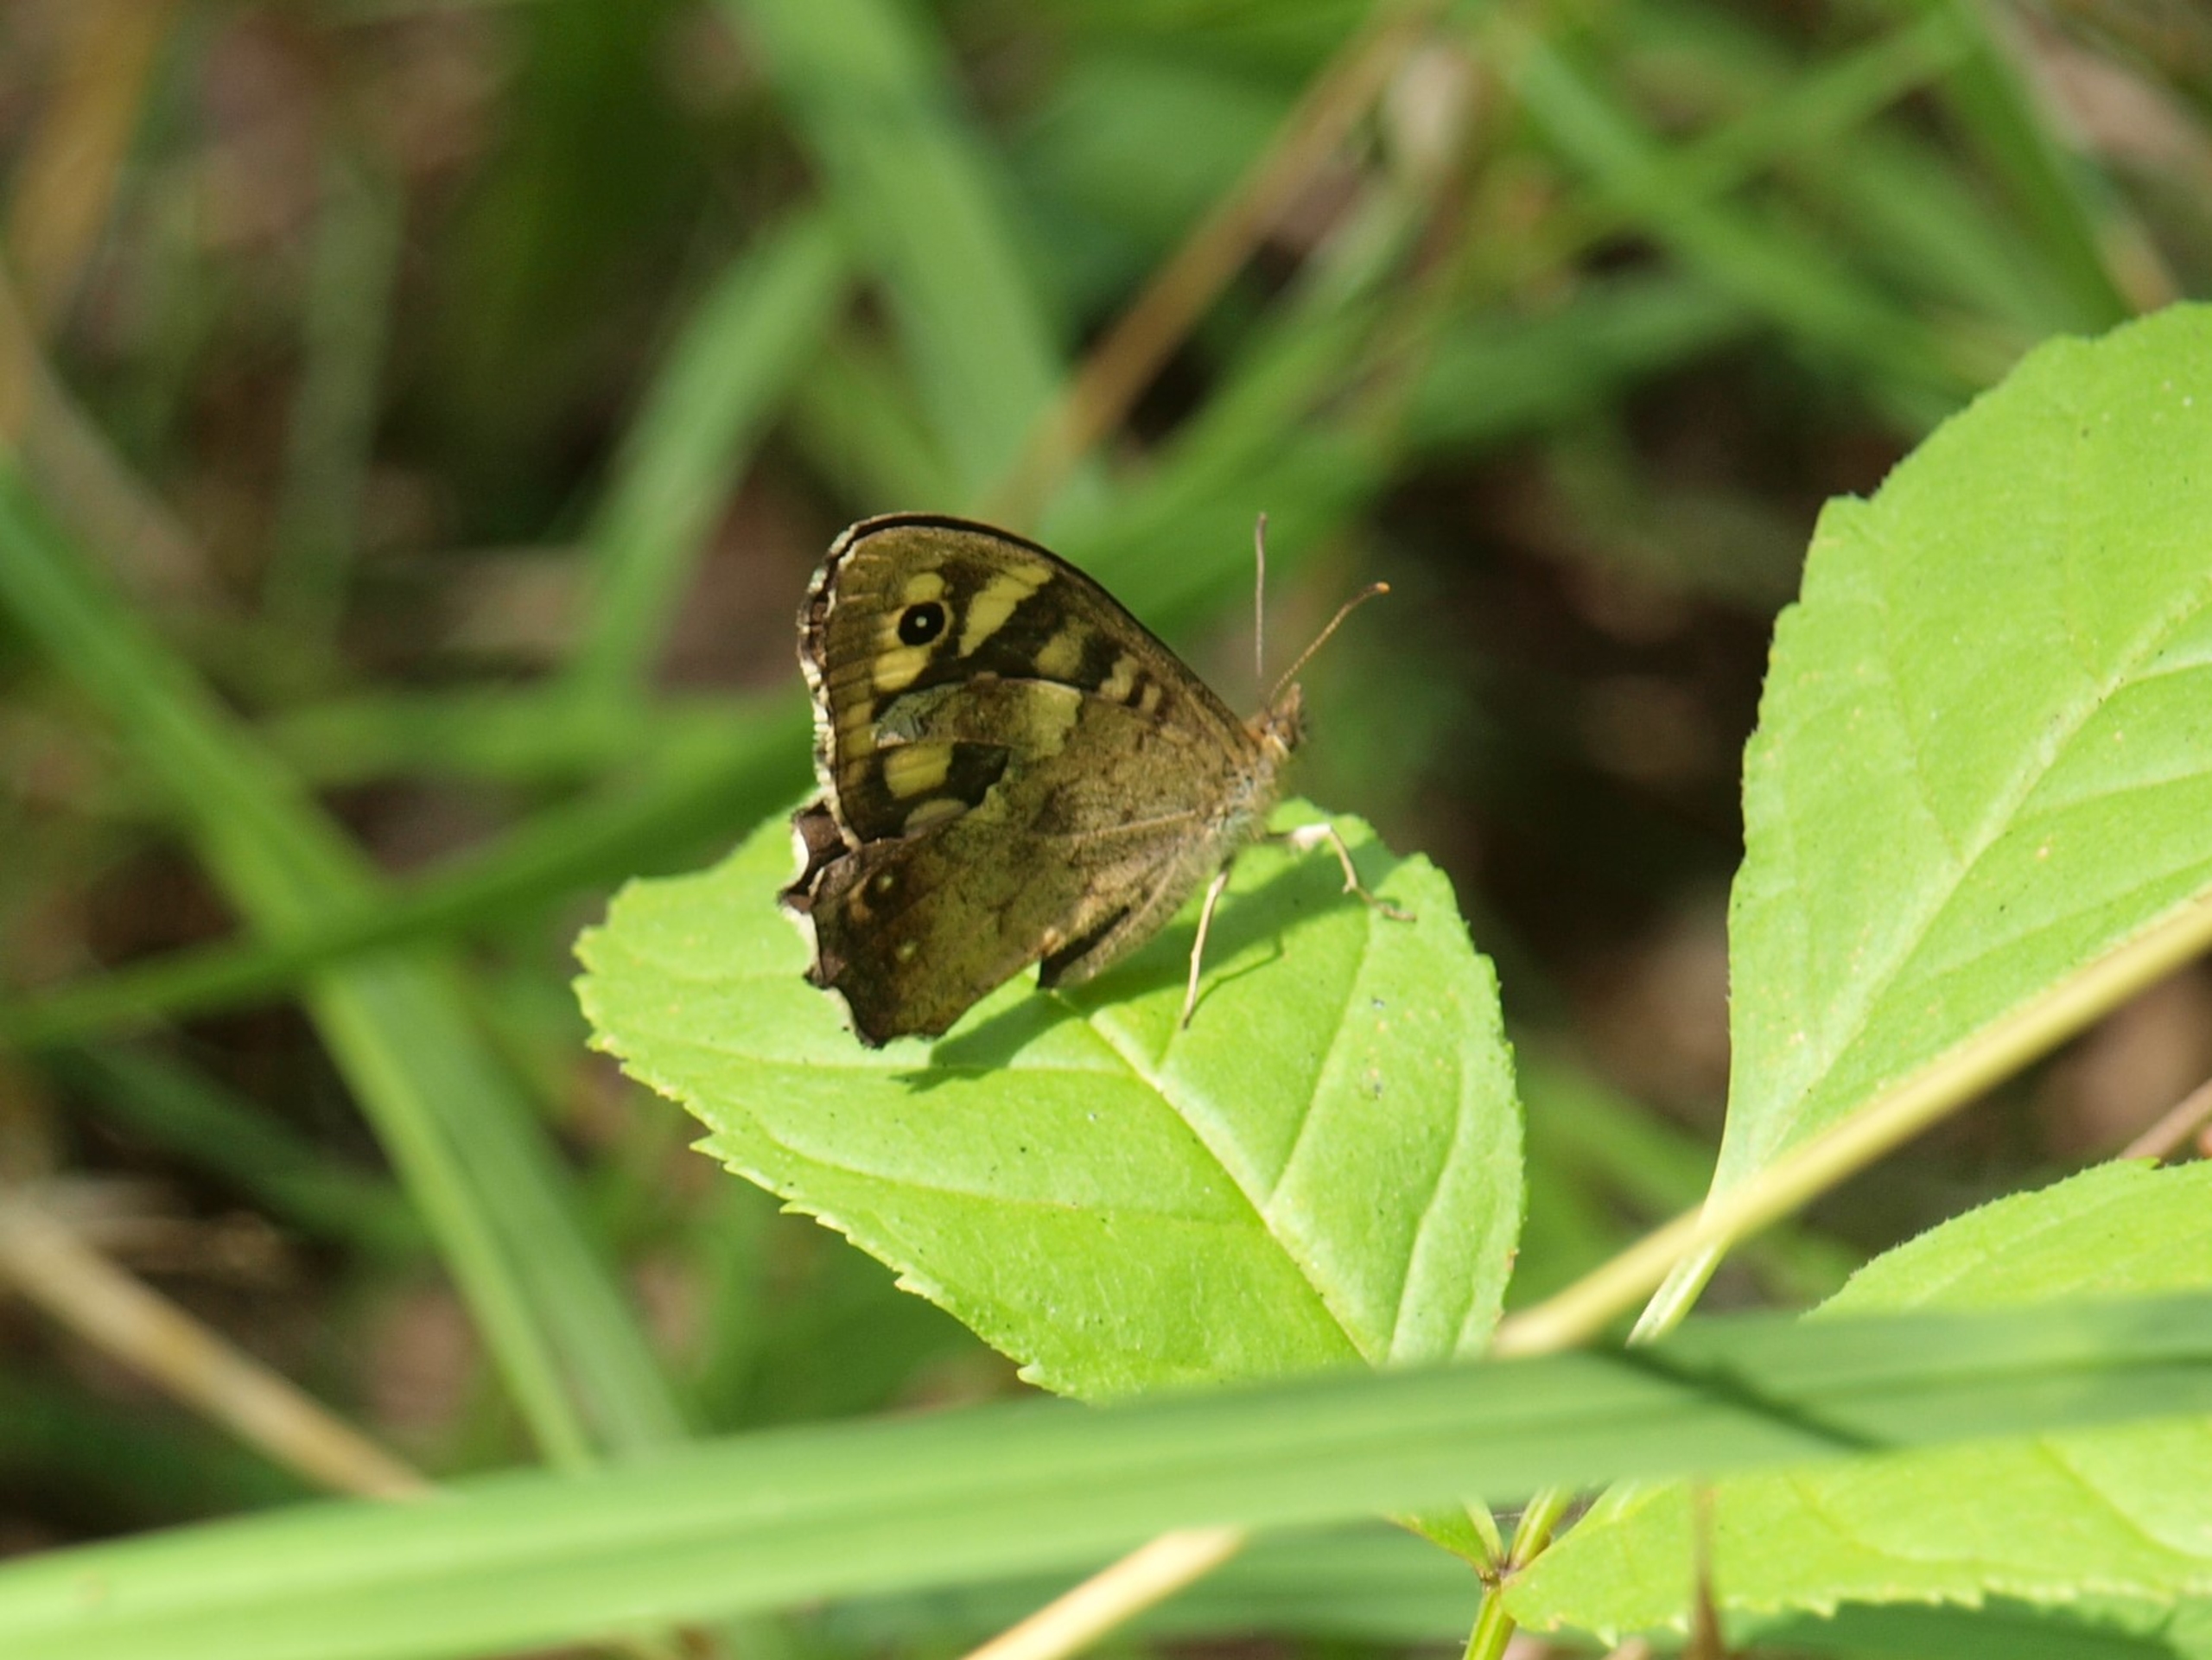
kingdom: Animalia
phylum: Arthropoda
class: Insecta
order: Lepidoptera
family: Nymphalidae
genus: Pararge
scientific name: Pararge aegeria
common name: Skovrandøje
